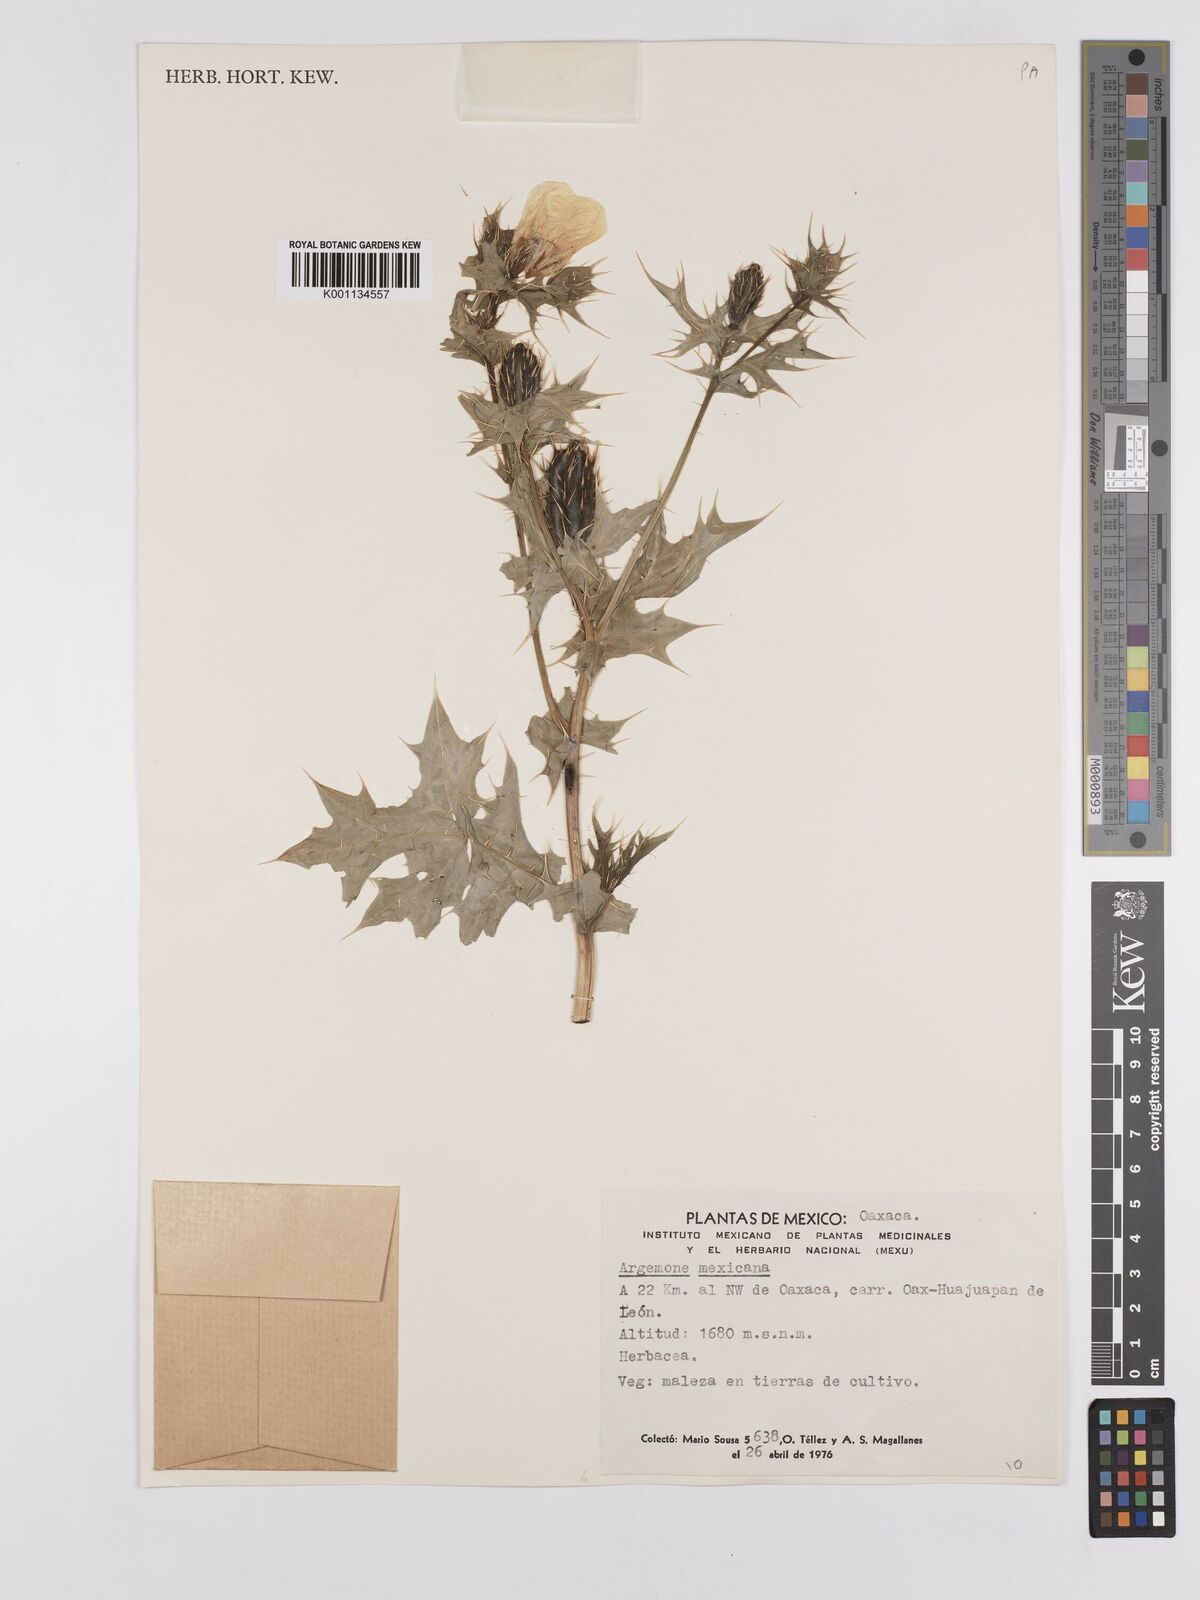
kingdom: Plantae
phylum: Tracheophyta
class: Magnoliopsida
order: Ranunculales
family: Papaveraceae
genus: Argemone
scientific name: Argemone mexicana
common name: Mexican poppy
